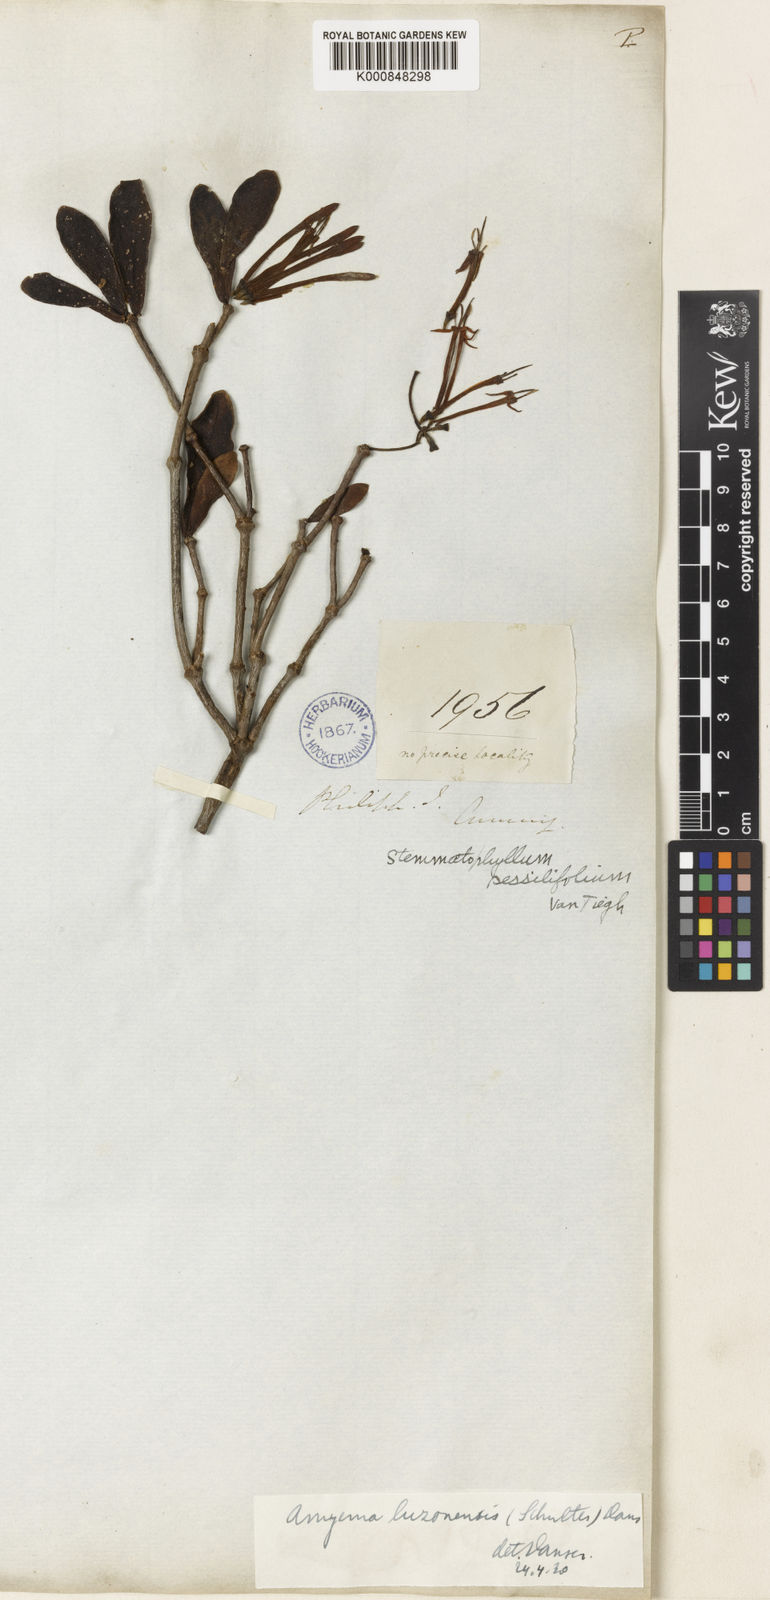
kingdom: Plantae
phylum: Tracheophyta
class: Magnoliopsida
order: Santalales
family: Loranthaceae
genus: Amyema
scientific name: Amyema luzonensis
